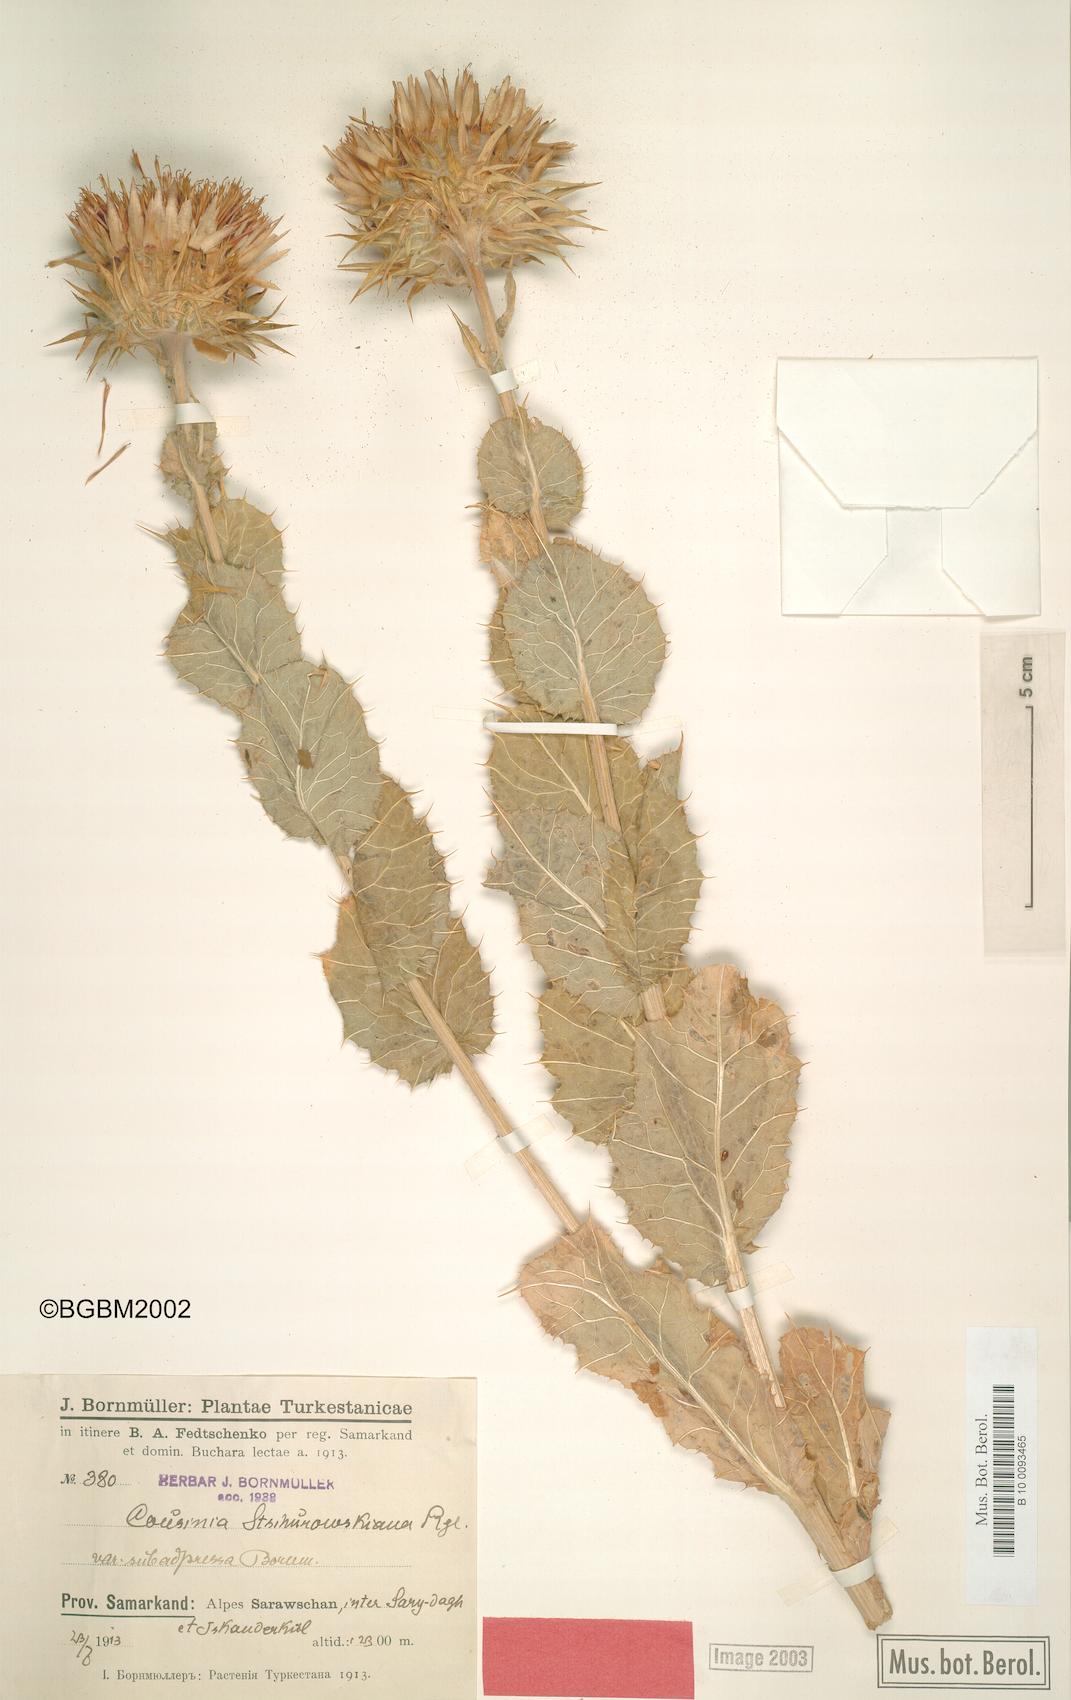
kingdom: Plantae
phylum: Tracheophyta
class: Magnoliopsida
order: Asterales
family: Asteraceae
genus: Cousinia
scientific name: Cousinia princeps
